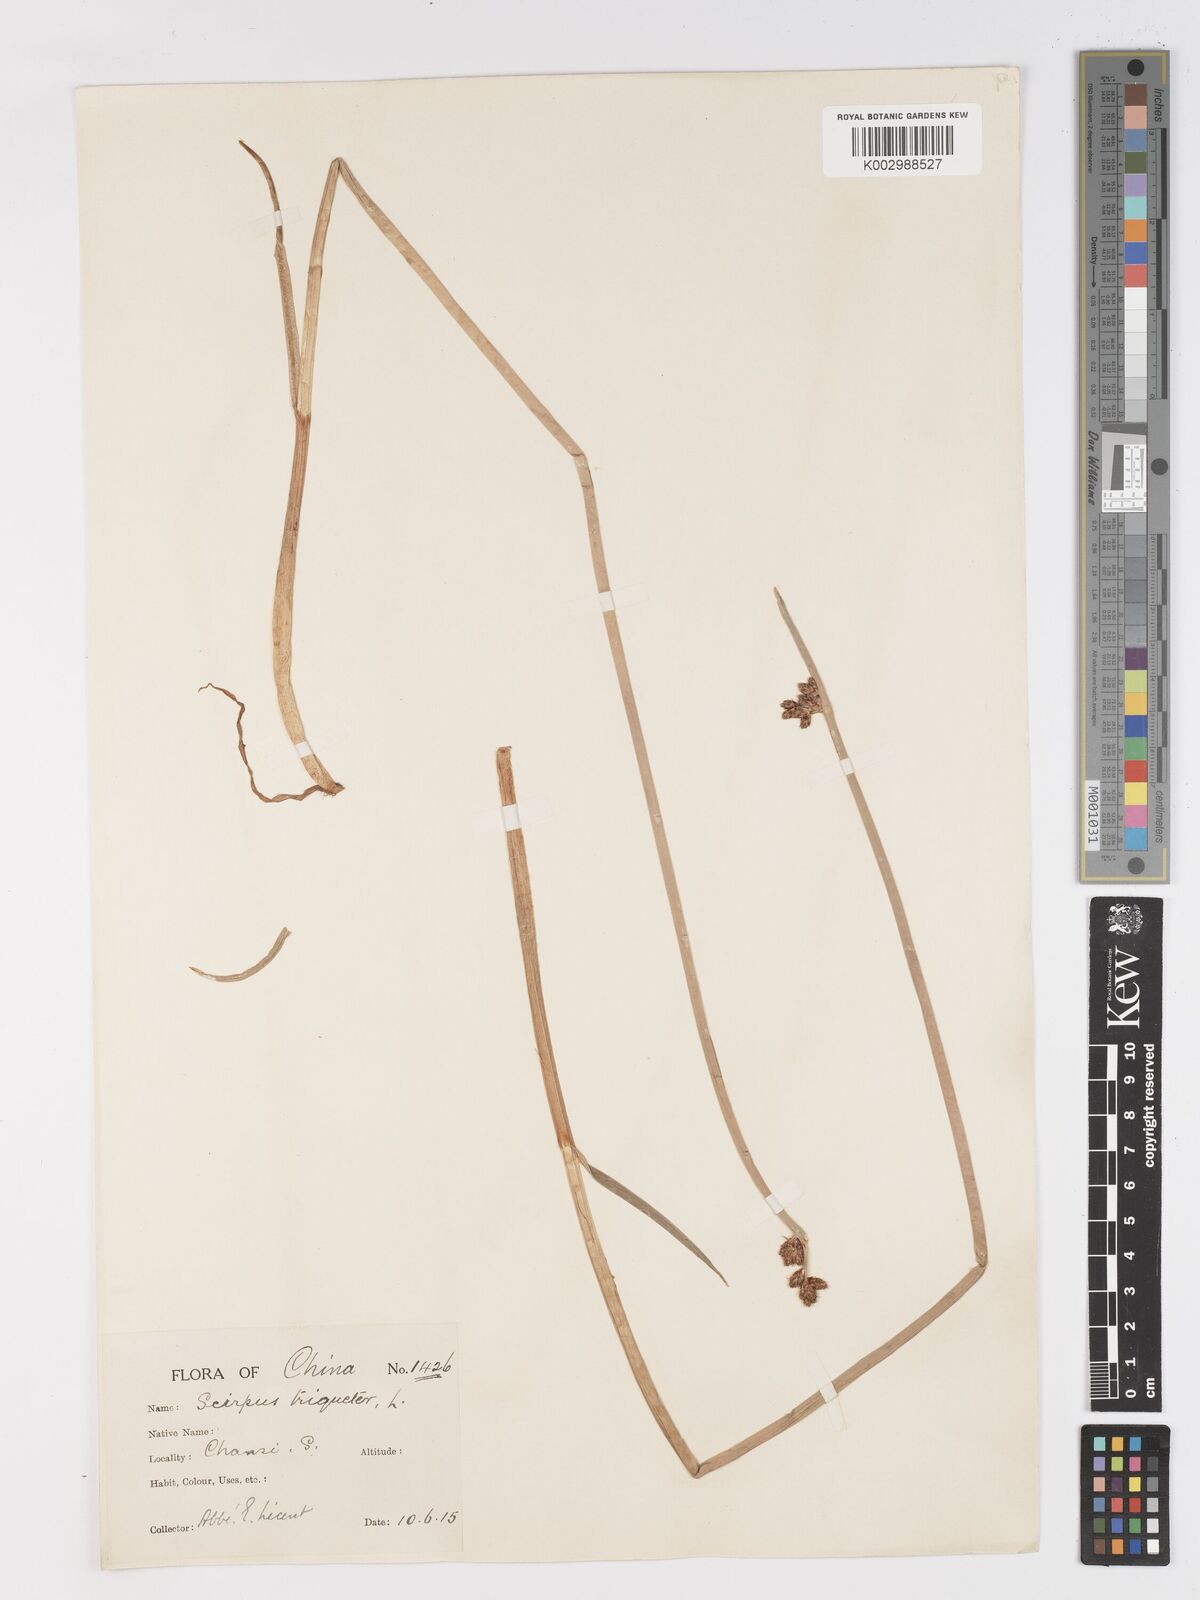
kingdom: Plantae
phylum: Tracheophyta
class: Liliopsida
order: Poales
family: Cyperaceae
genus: Schoenoplectus
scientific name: Schoenoplectus triqueter
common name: Triangular club-rush
